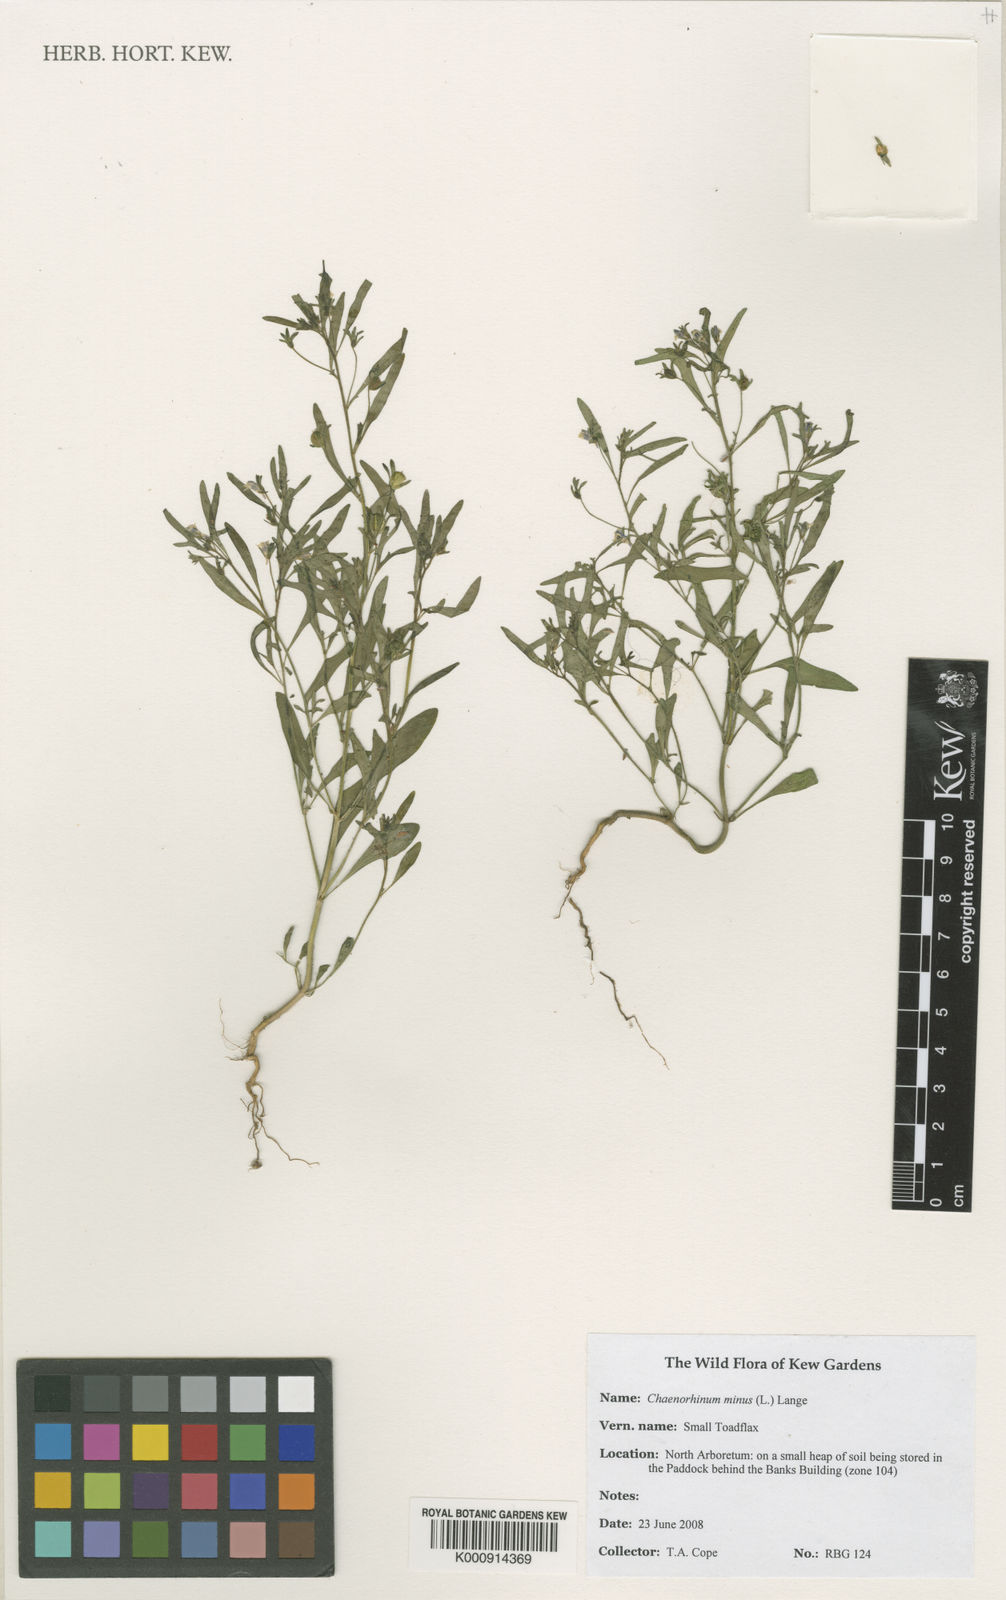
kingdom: Plantae
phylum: Tracheophyta
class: Magnoliopsida
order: Lamiales
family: Plantaginaceae
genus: Chaenorhinum
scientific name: Chaenorhinum minus
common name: Dwarf snapdragon
